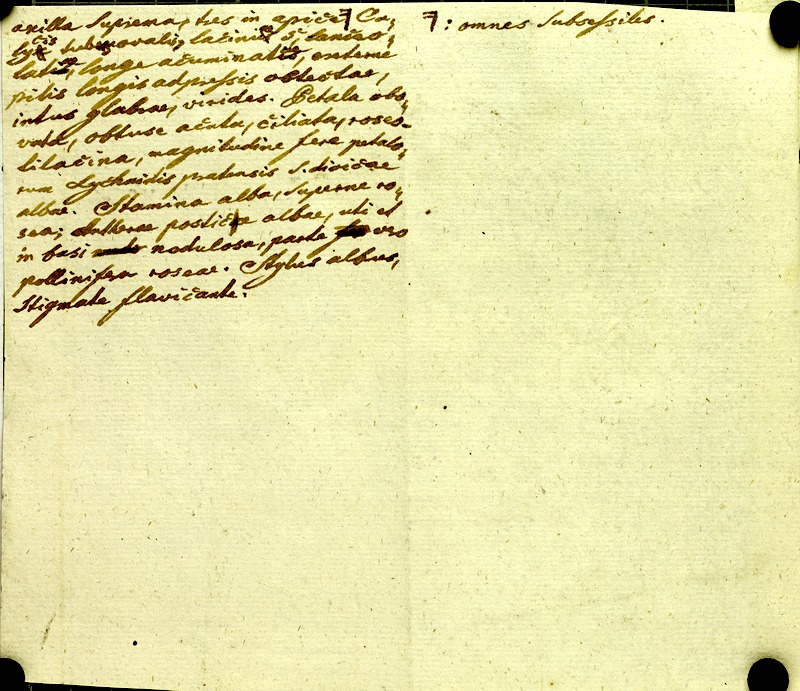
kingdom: Plantae
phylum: Tracheophyta
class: Magnoliopsida
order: Myrtales
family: Melastomataceae
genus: Chaetogastra
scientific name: Chaetogastra gracilis
